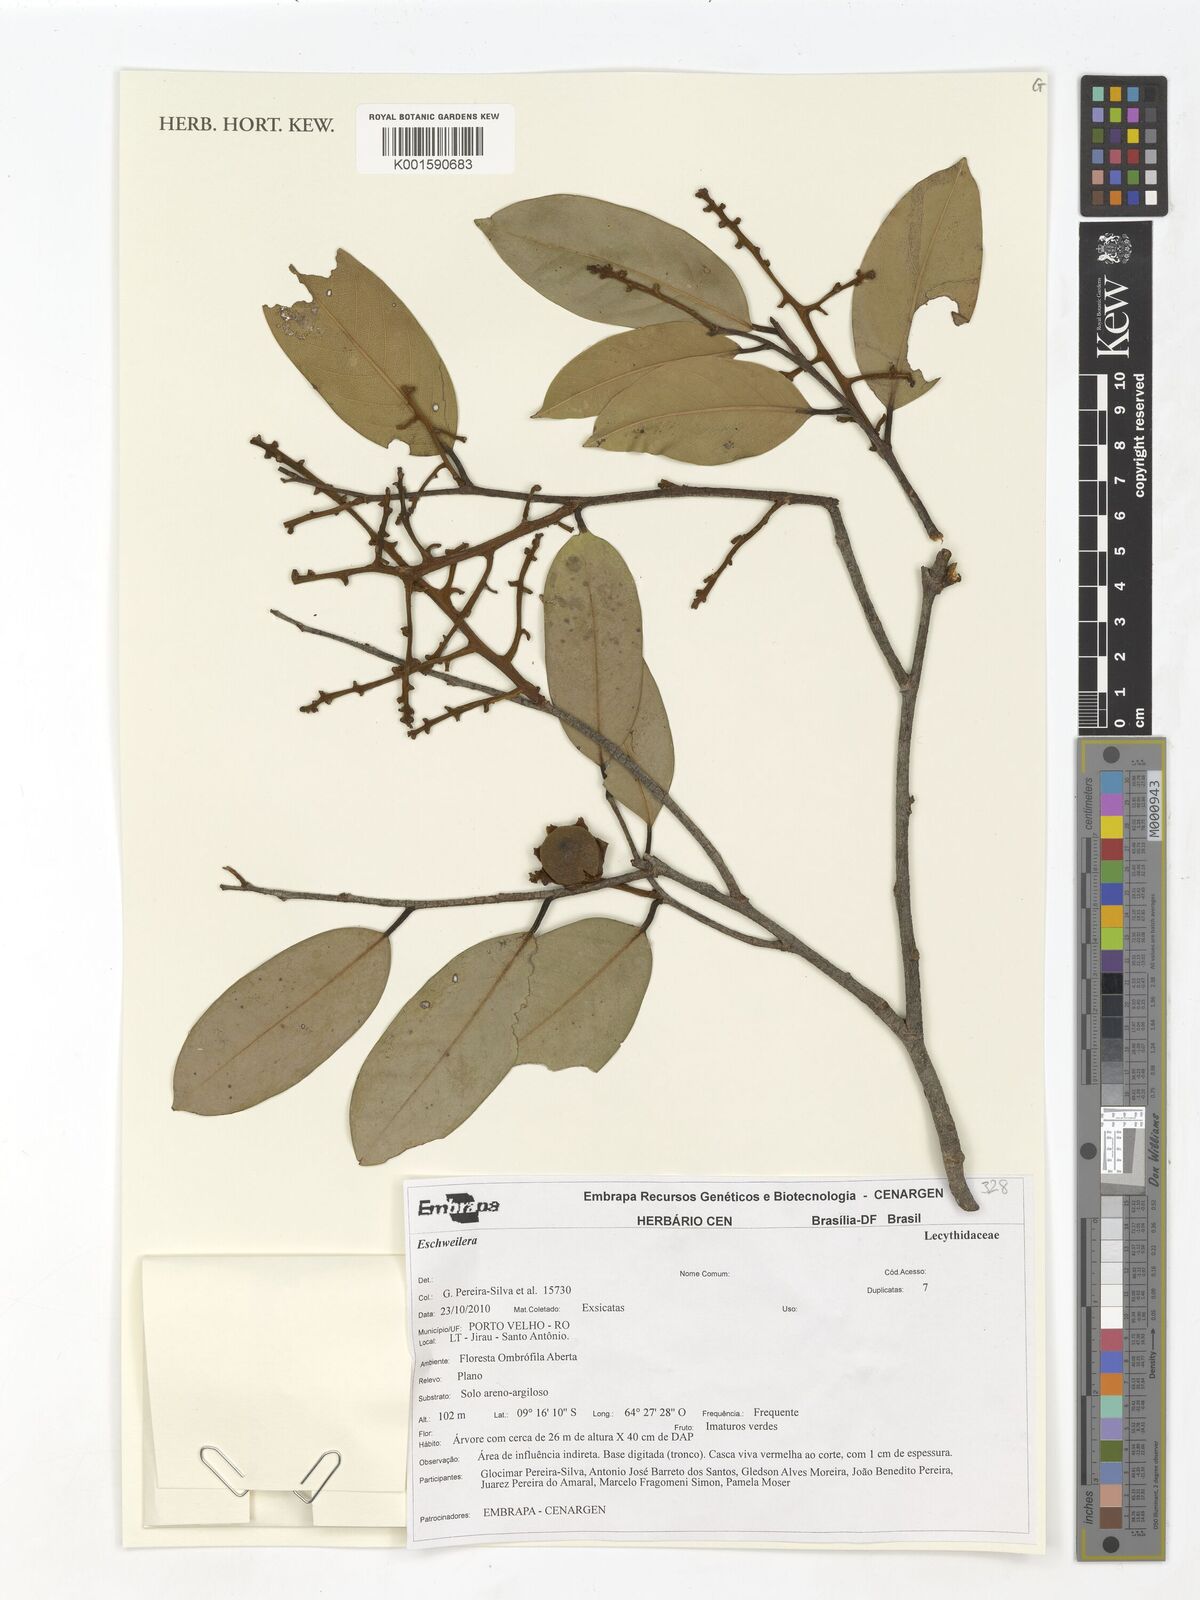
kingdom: Plantae
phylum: Tracheophyta
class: Magnoliopsida
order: Ericales
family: Lecythidaceae
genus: Eschweilera
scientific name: Eschweilera
